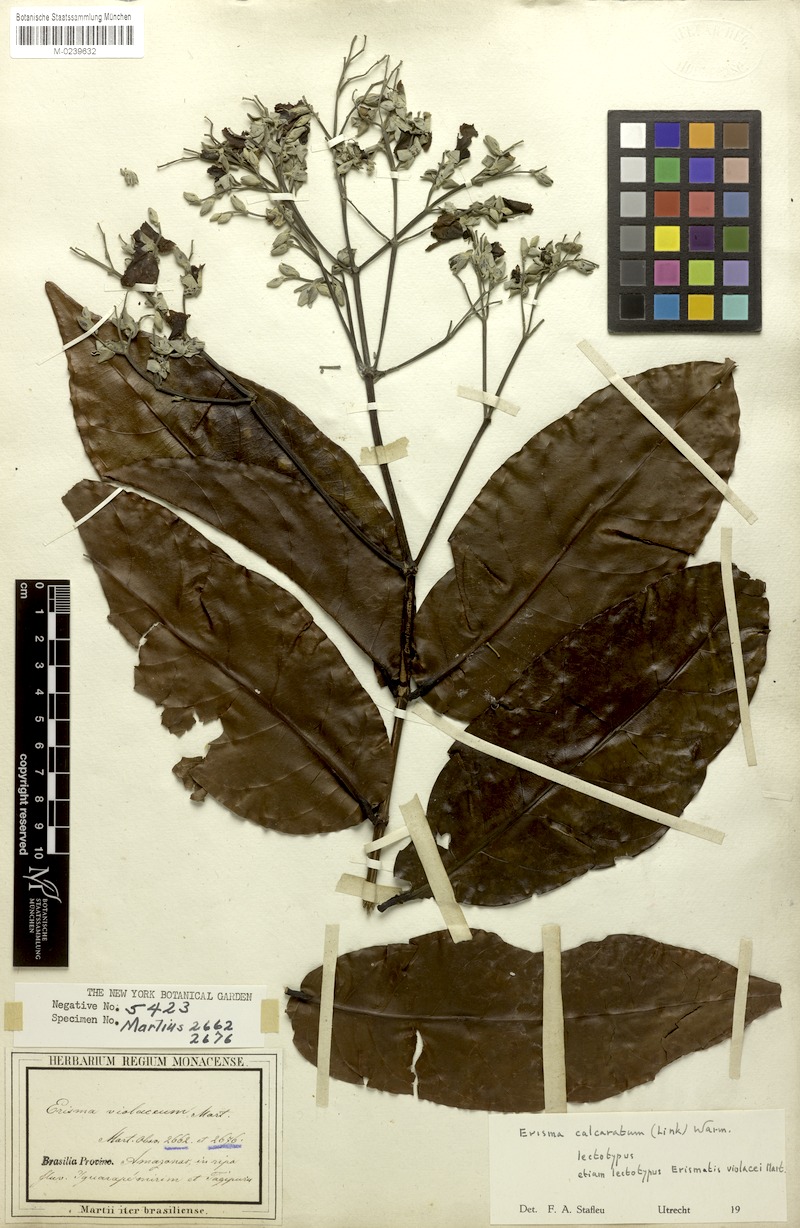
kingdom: Plantae
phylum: Tracheophyta
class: Magnoliopsida
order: Myrtales
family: Vochysiaceae
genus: Erisma
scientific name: Erisma calcaratum
